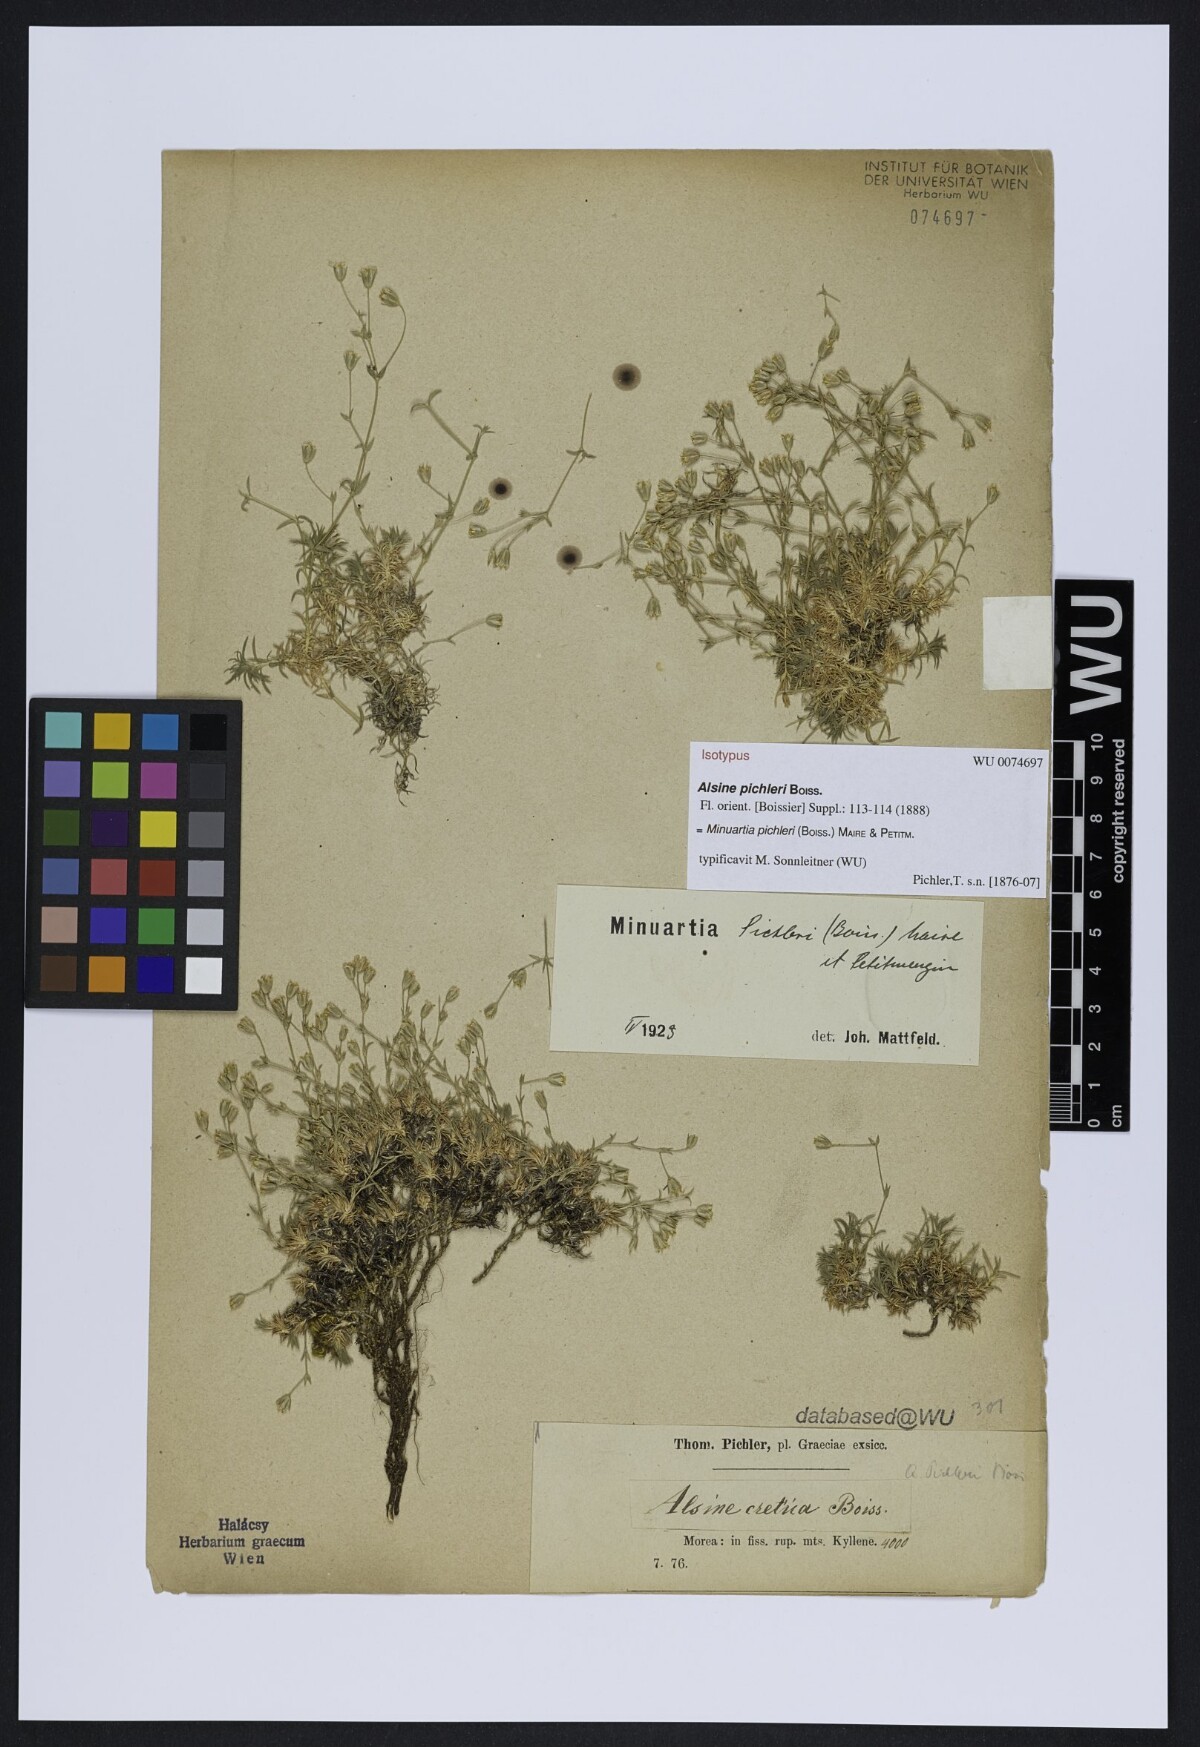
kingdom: Plantae
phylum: Tracheophyta
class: Magnoliopsida
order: Caryophyllales
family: Caryophyllaceae
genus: Sabulina
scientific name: Sabulina pichleri
